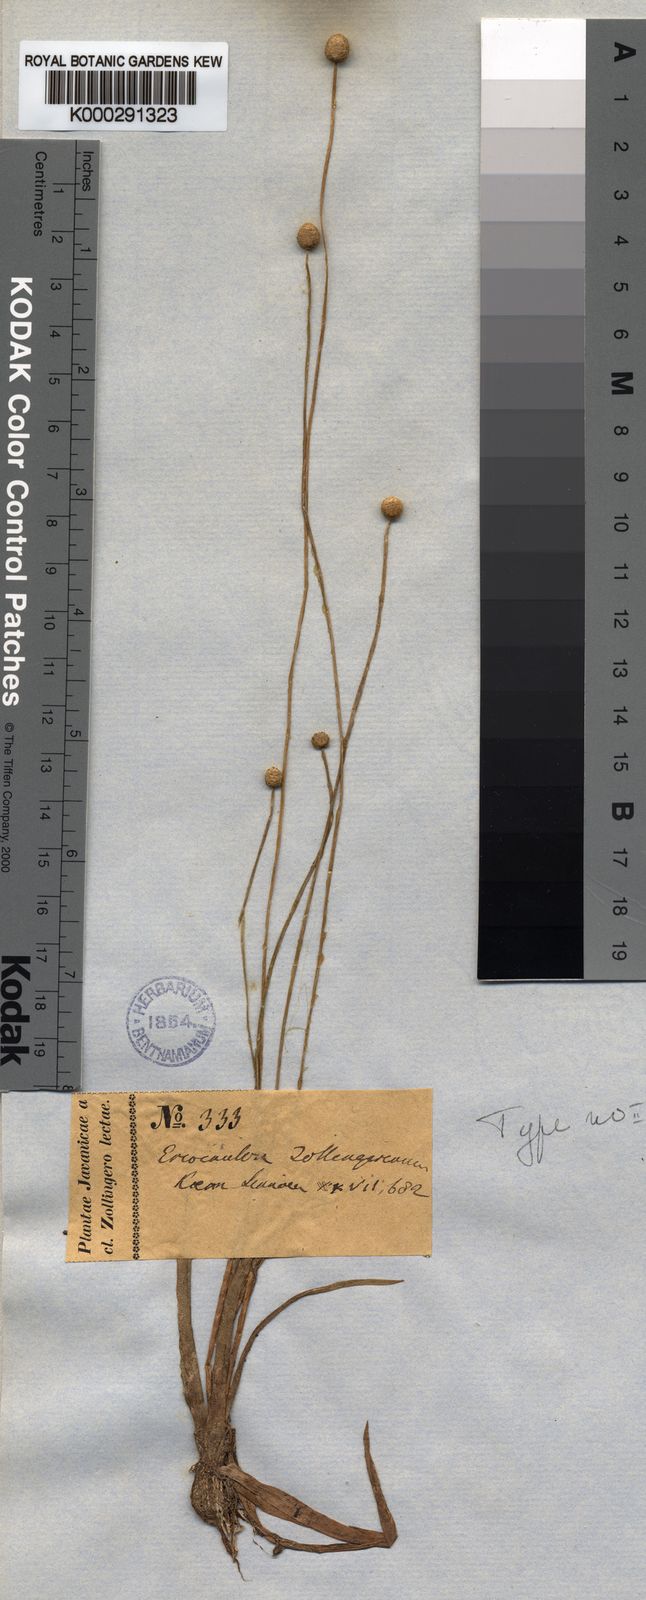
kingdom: Plantae
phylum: Tracheophyta
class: Liliopsida
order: Poales
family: Eriocaulaceae
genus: Eriocaulon
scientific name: Eriocaulon
